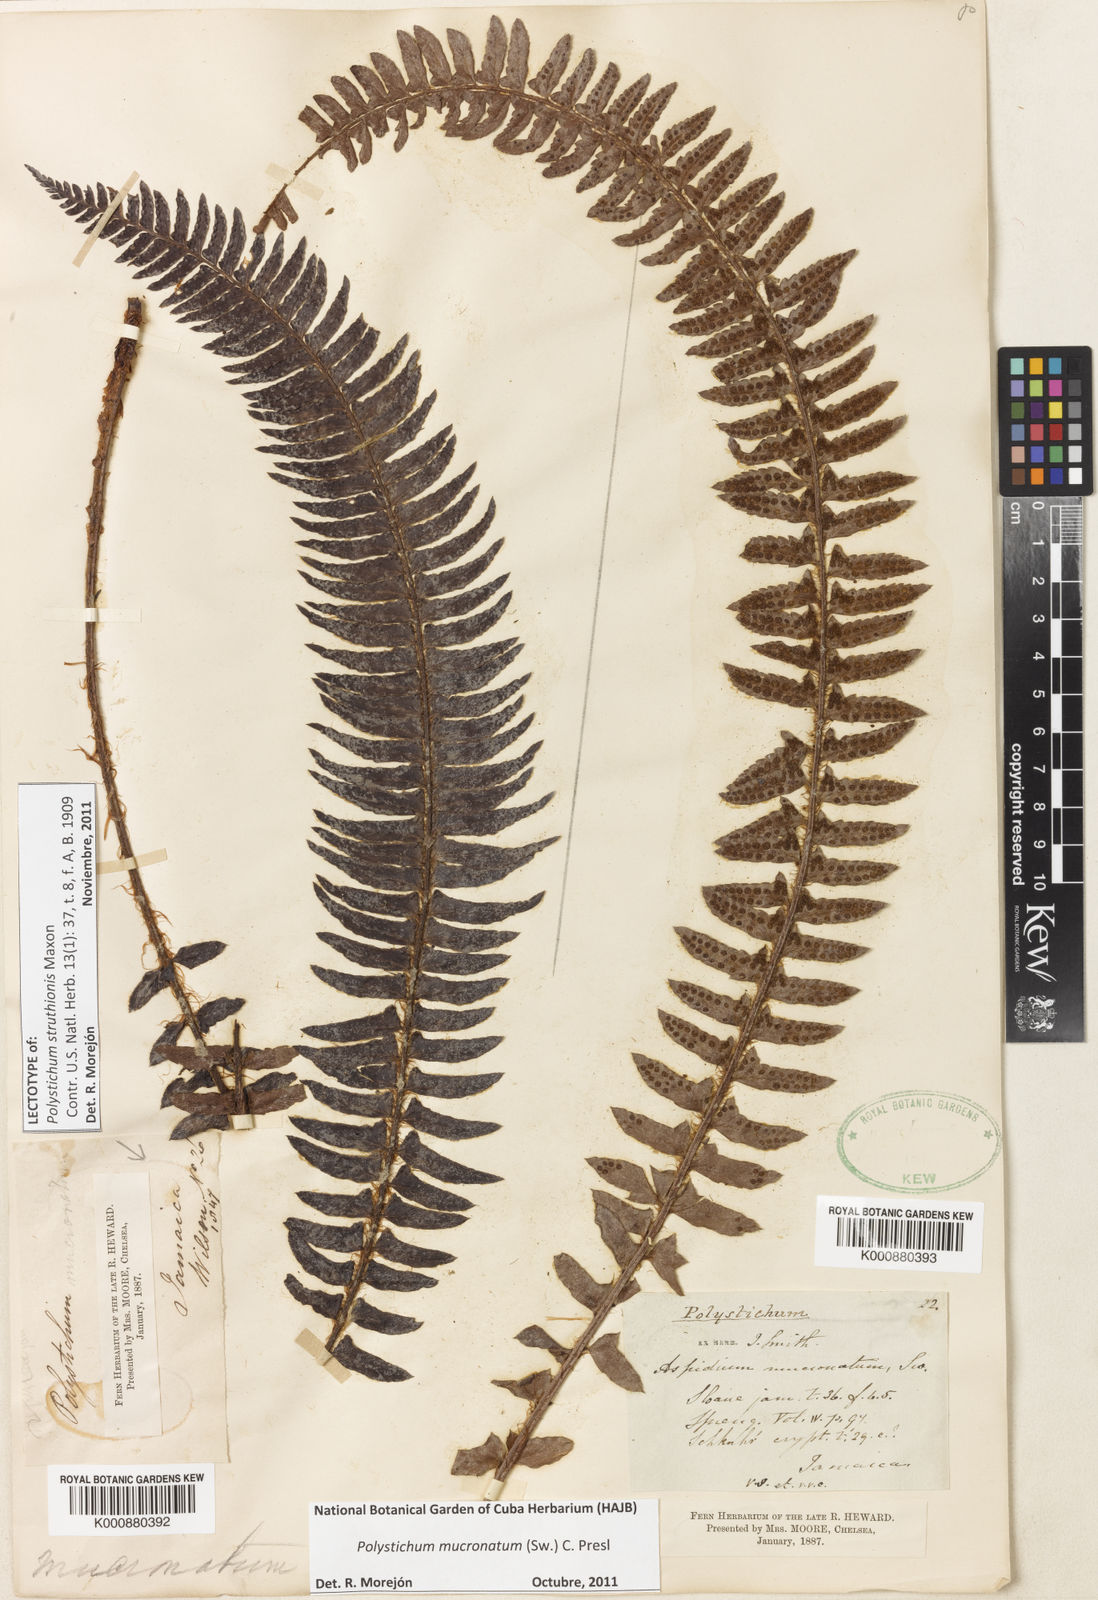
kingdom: Plantae
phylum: Tracheophyta
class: Polypodiopsida
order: Polypodiales
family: Dryopteridaceae
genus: Polystichum
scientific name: Polystichum triangulum
